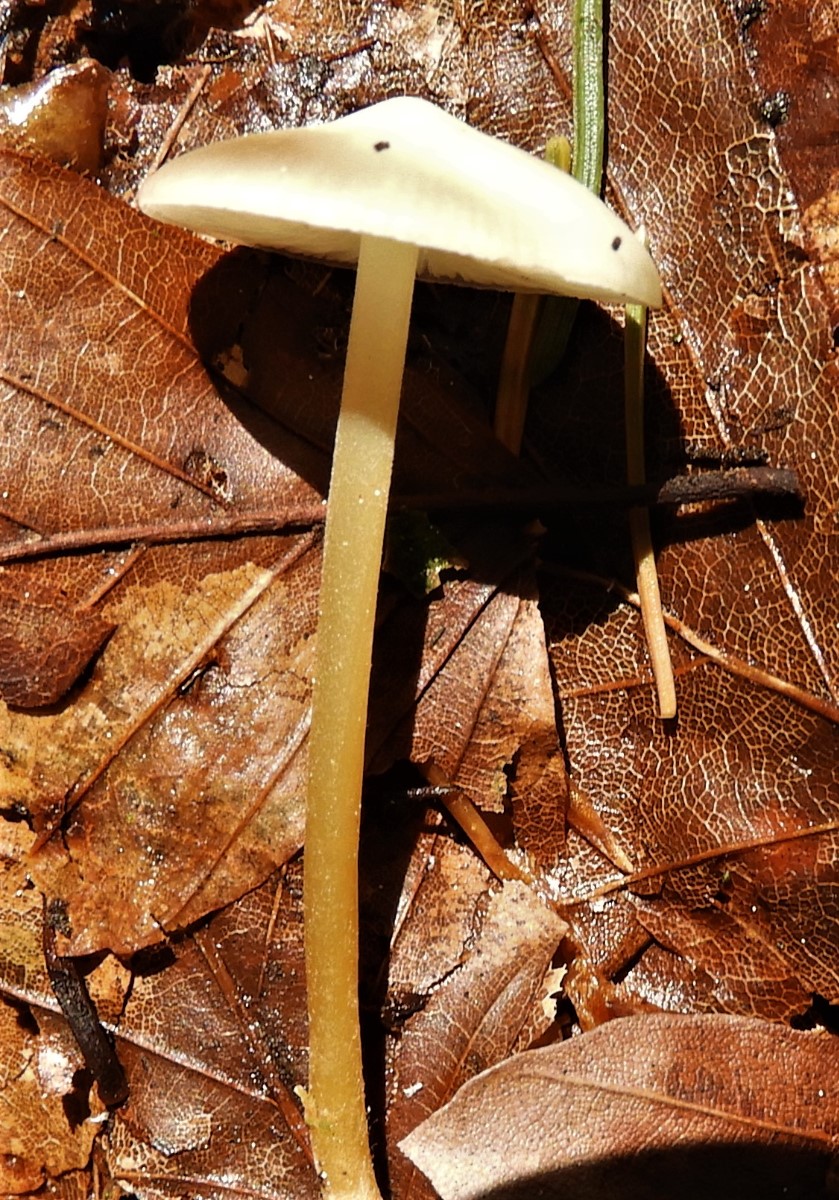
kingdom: Fungi
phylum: Basidiomycota
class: Agaricomycetes
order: Agaricales
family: Physalacriaceae
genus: Strobilurus
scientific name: Strobilurus esculentus
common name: gran-koglehat
